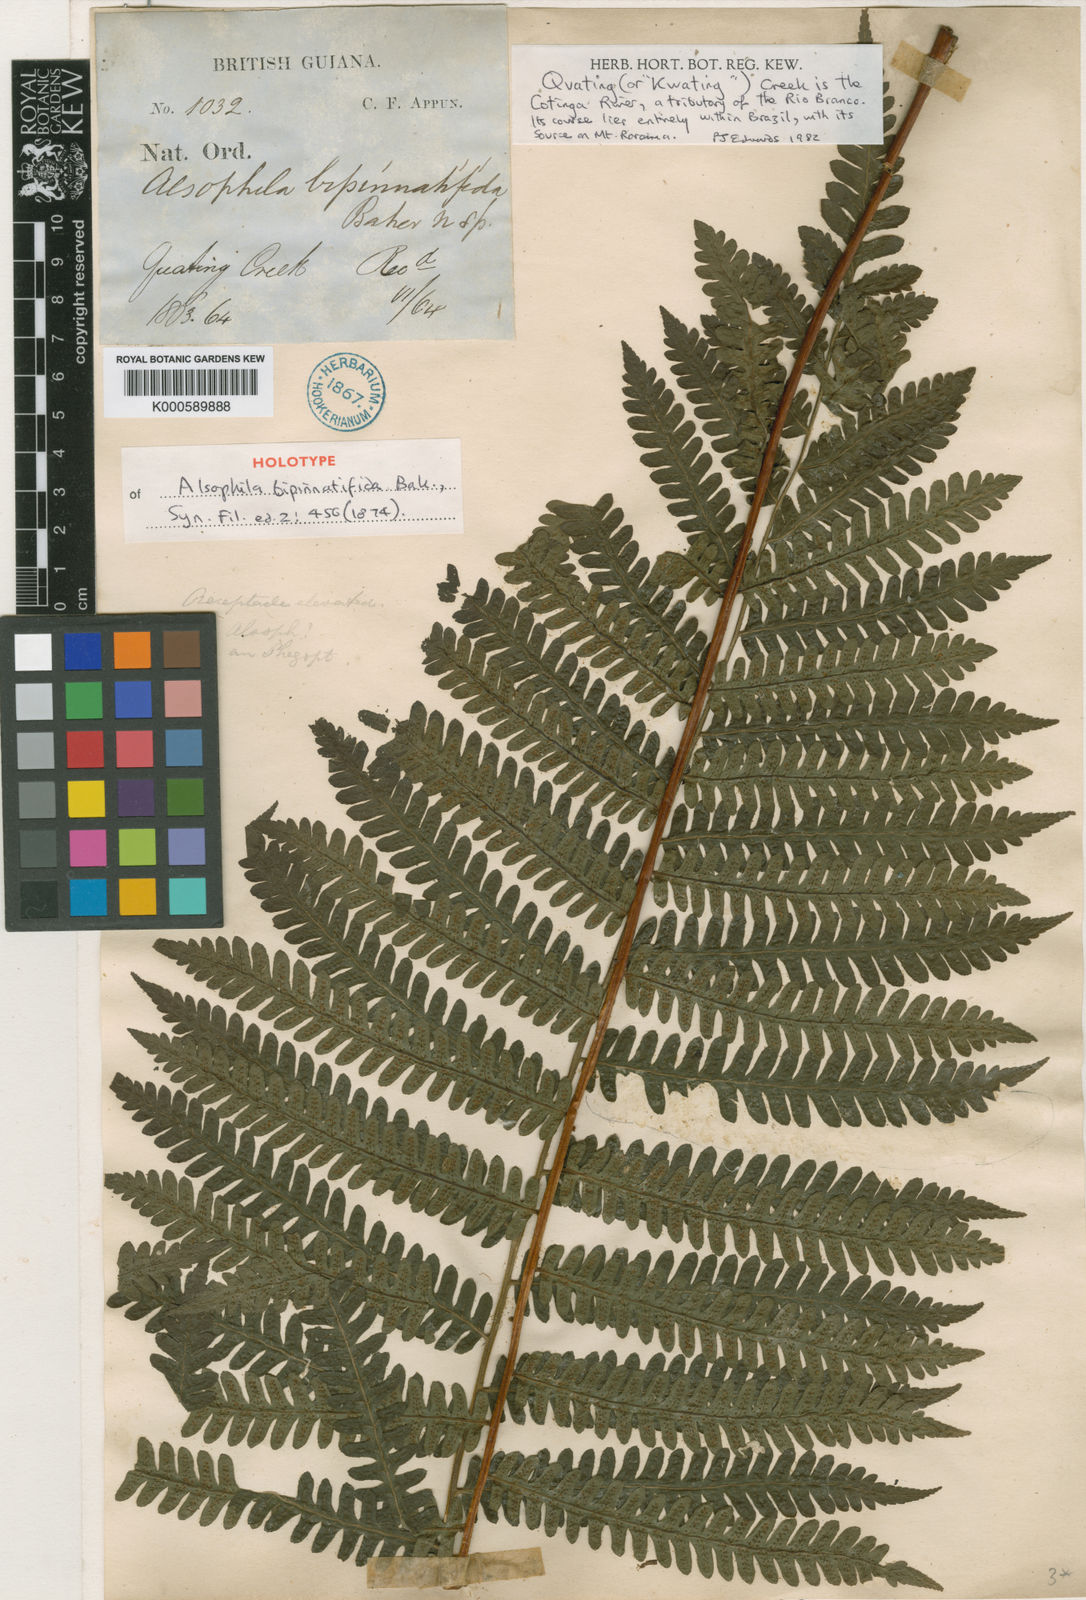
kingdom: Plantae
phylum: Tracheophyta
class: Polypodiopsida
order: Cyatheales
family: Cyatheaceae
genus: Cyathea
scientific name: Cyathea bipinnatifida
